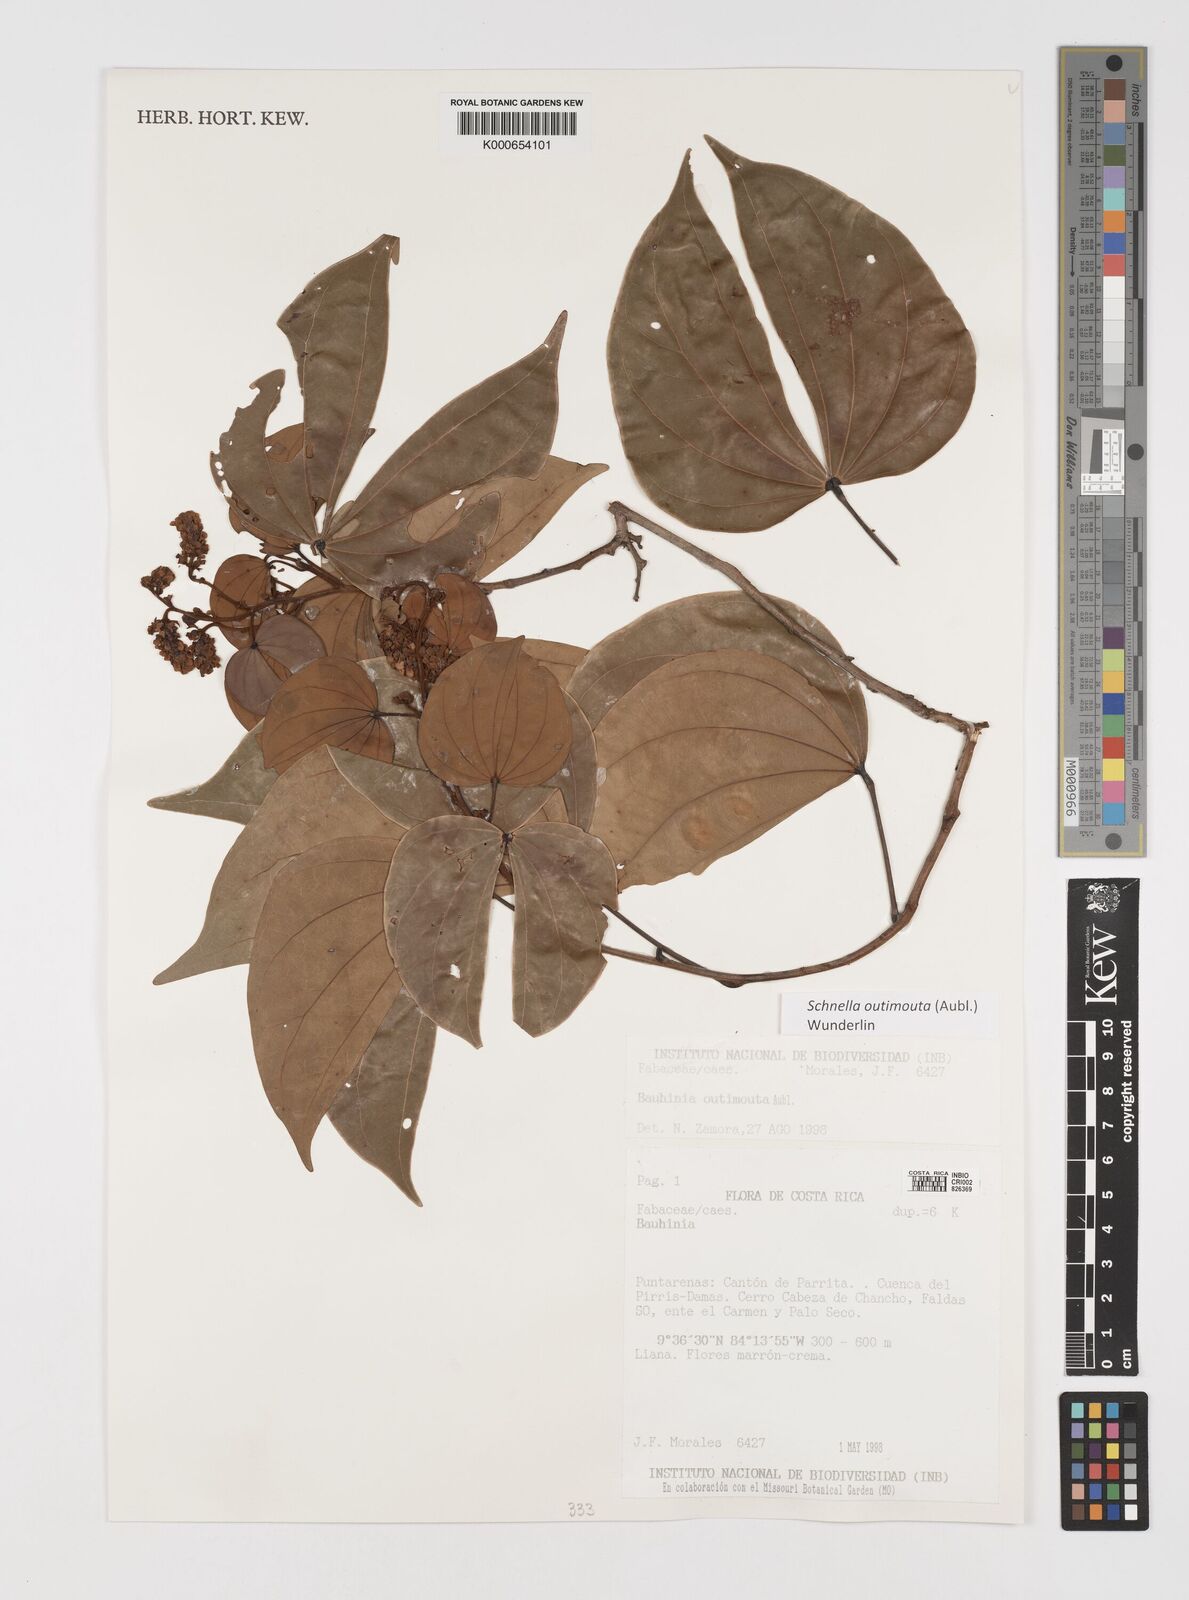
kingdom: Plantae
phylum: Tracheophyta
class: Magnoliopsida
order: Fabales
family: Fabaceae
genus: Schnella
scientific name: Schnella outimouta
